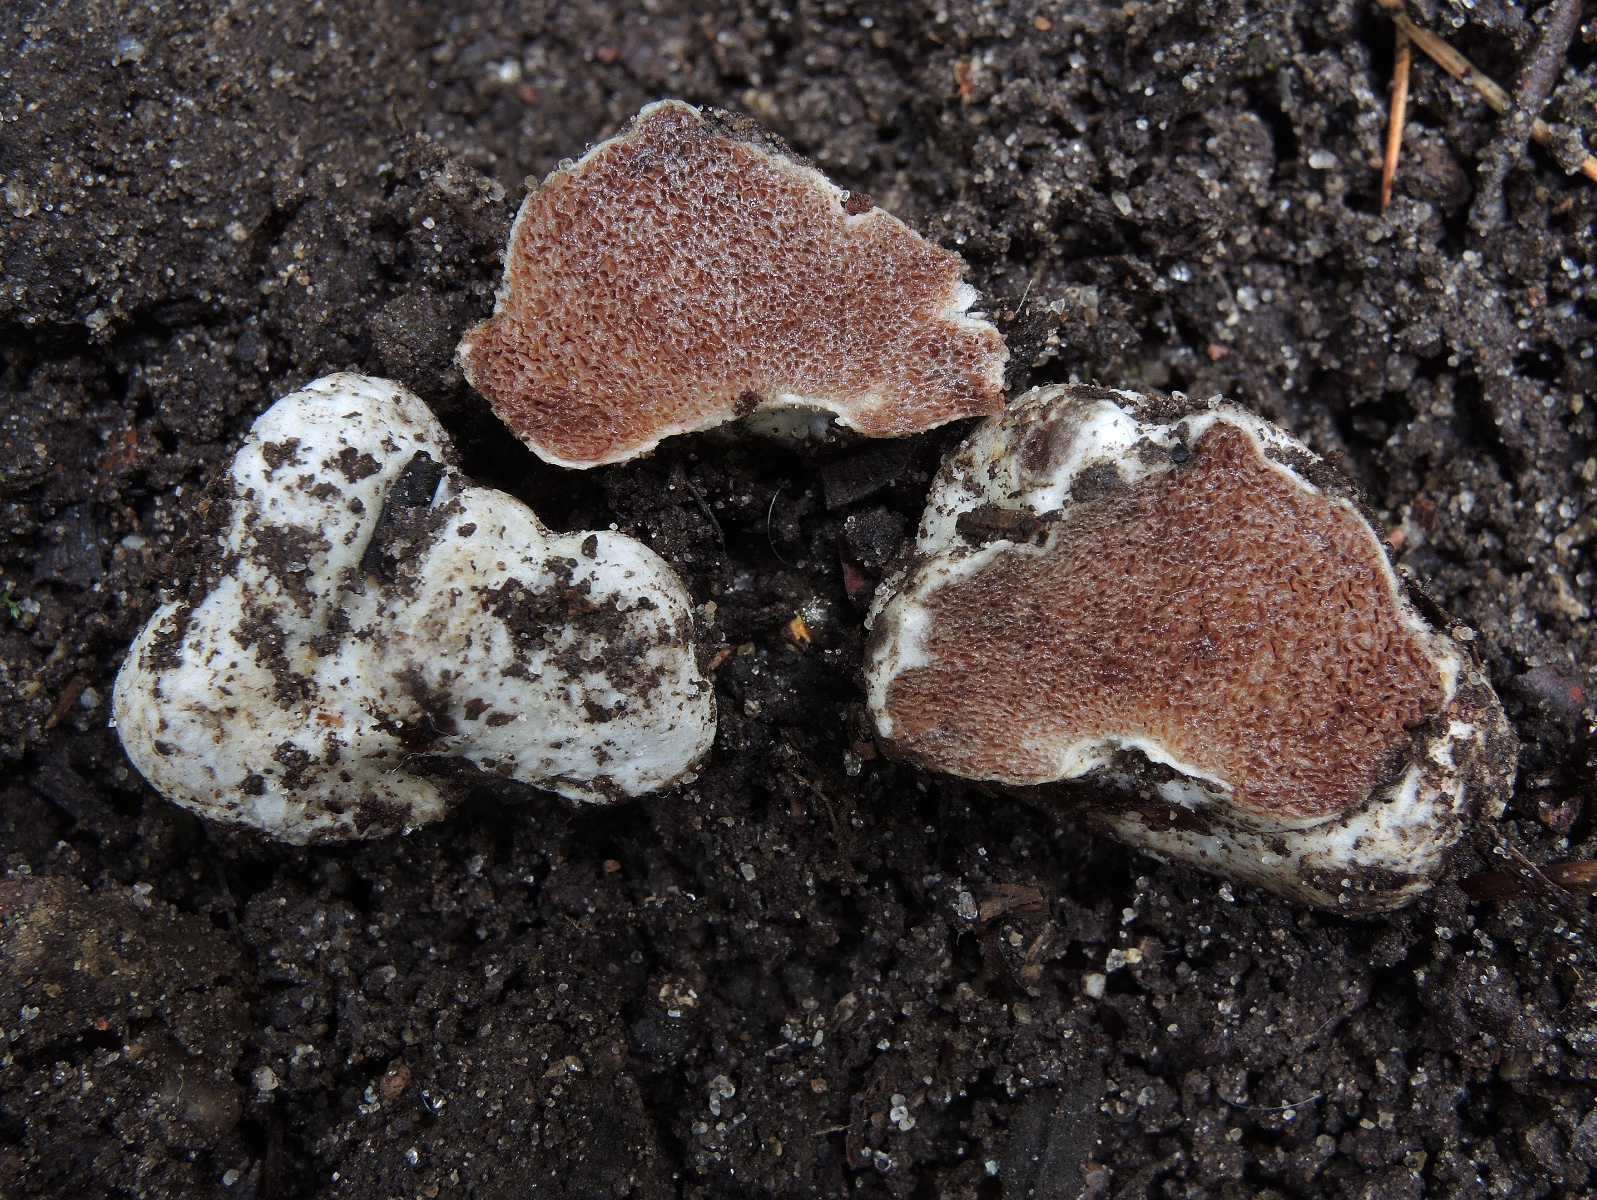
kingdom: Fungi
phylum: Basidiomycota
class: Agaricomycetes
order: Agaricales
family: Cortinariaceae
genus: Protoglossum
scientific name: Protoglossum niveum
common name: hvid knoldtrøffel
